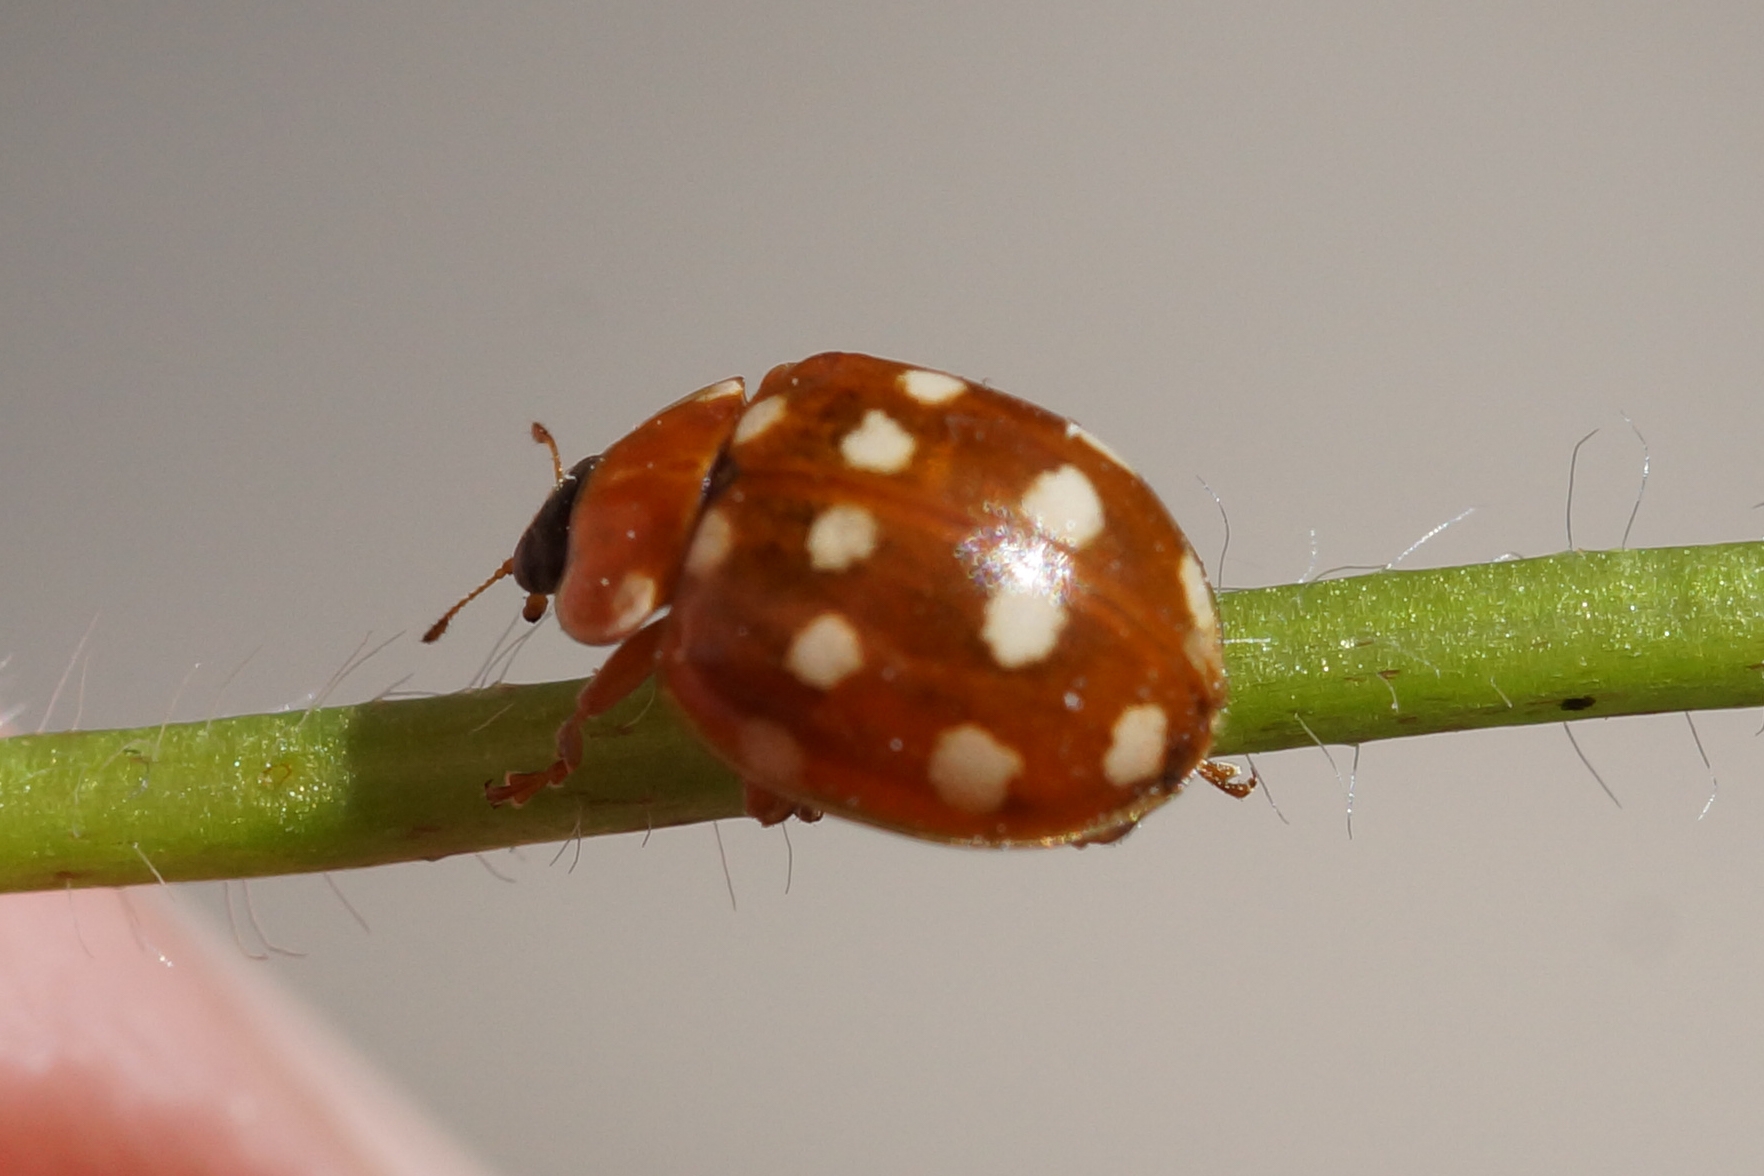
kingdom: Animalia
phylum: Arthropoda
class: Insecta
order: Coleoptera
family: Coccinellidae
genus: Calvia
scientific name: Calvia quatuordecimguttata
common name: Fjortenplettet mariehøne
